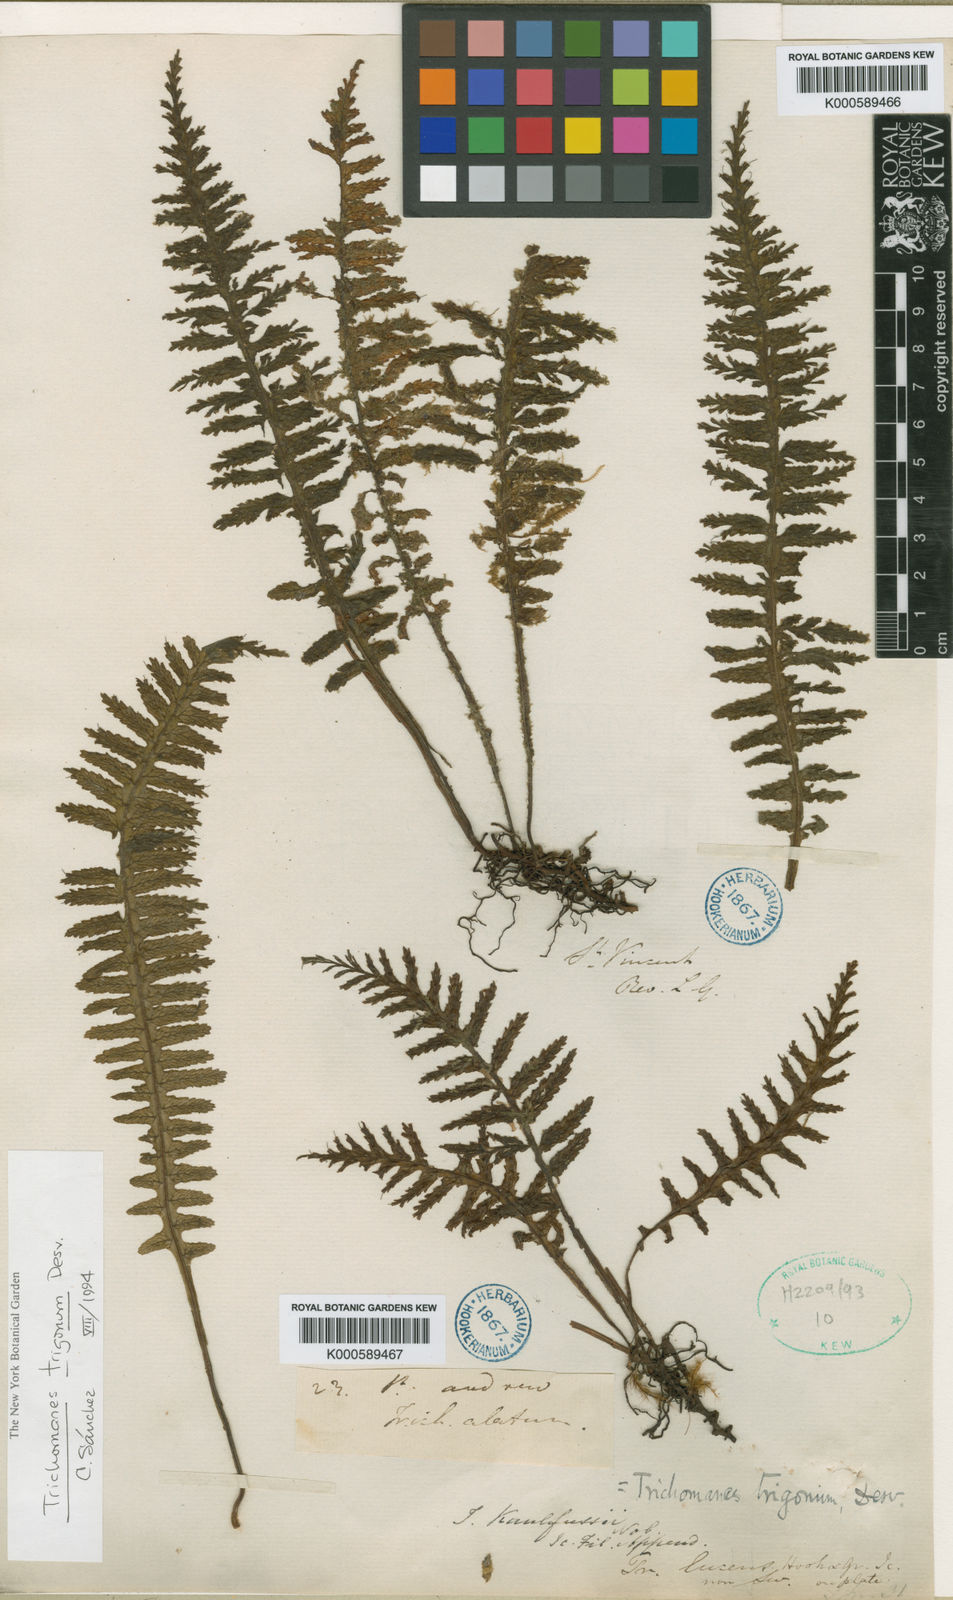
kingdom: Plantae
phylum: Tracheophyta
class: Polypodiopsida
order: Hymenophyllales
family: Hymenophyllaceae
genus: Trichomanes
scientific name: Trichomanes trigonum
